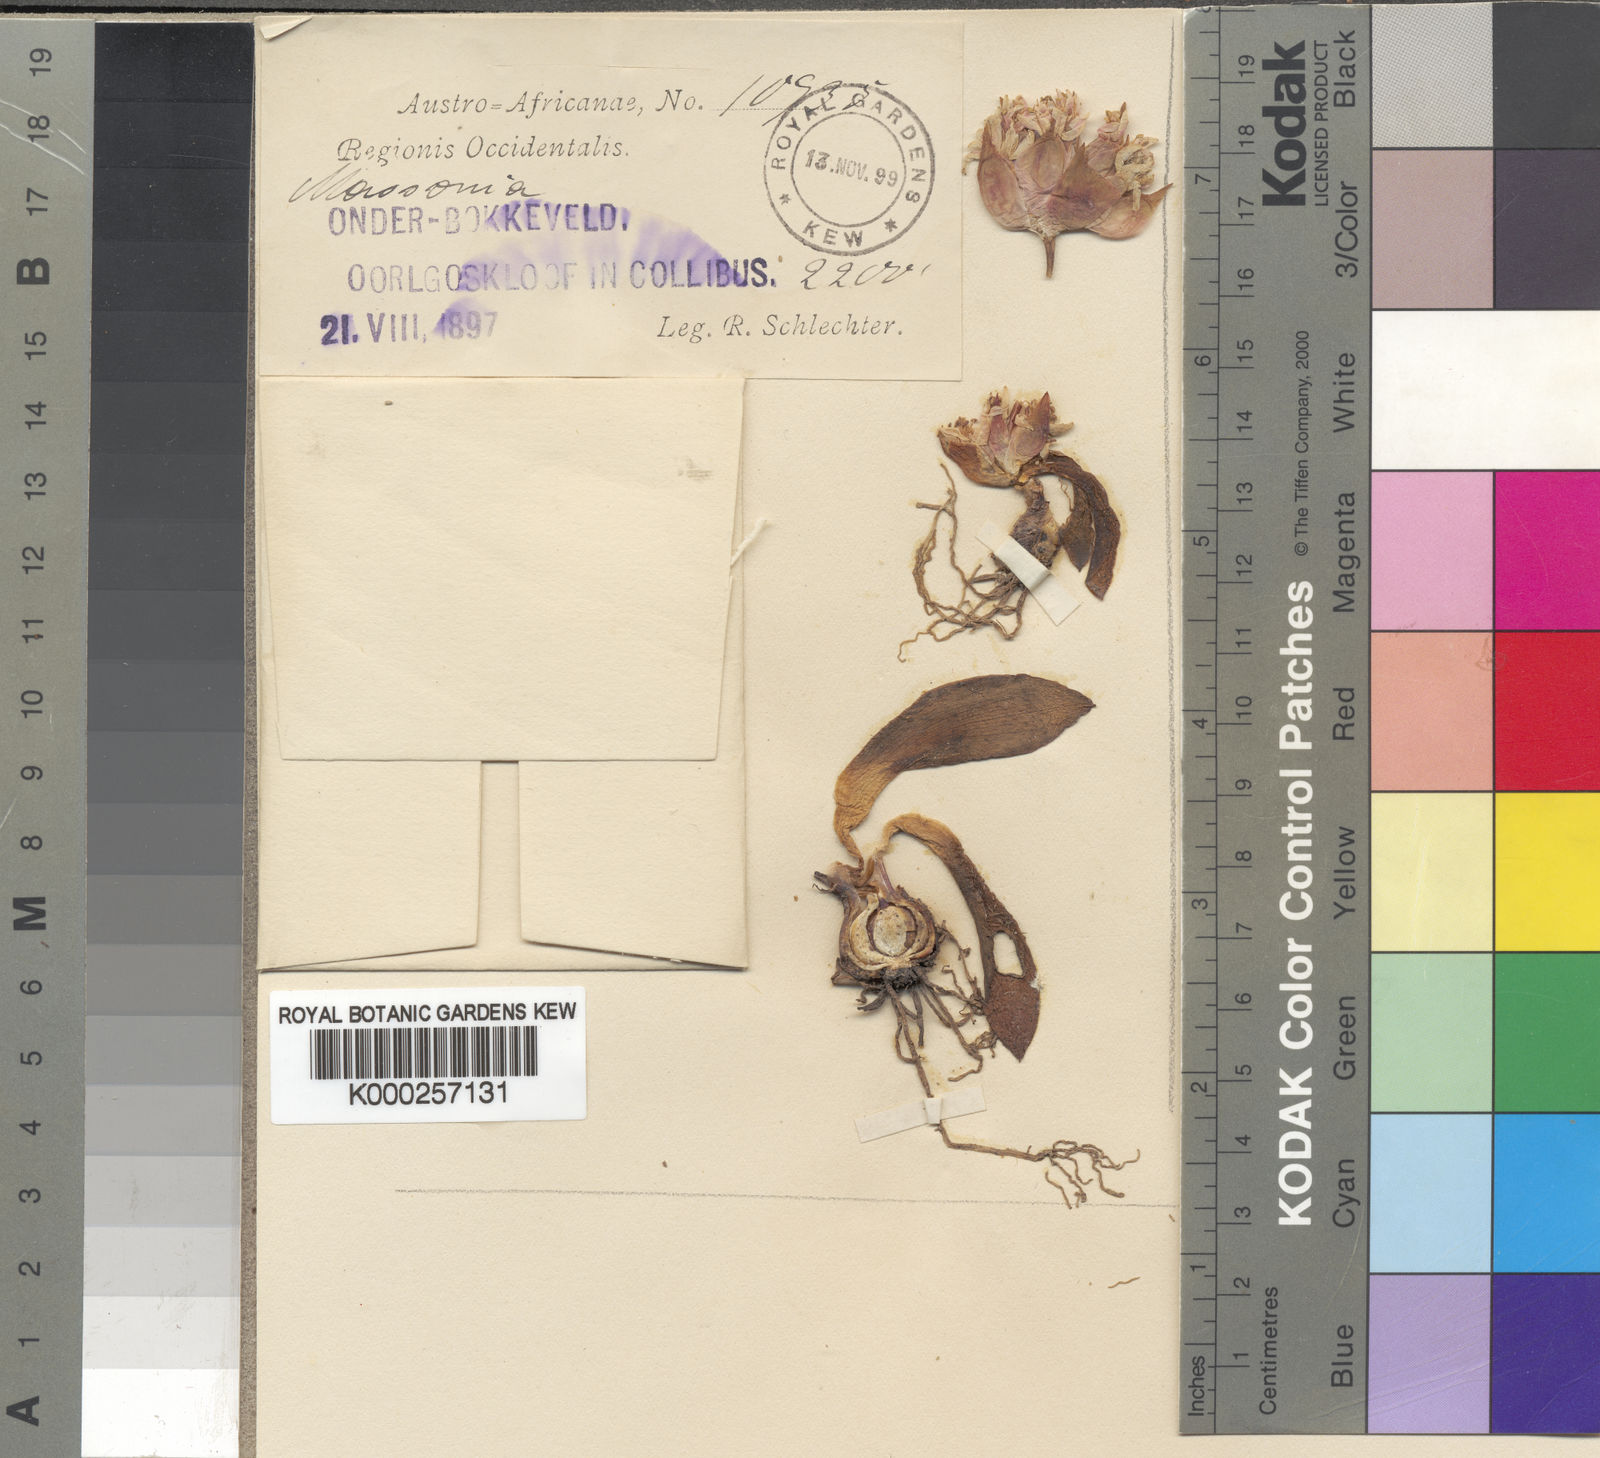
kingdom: Plantae
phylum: Tracheophyta
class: Liliopsida
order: Asparagales
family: Asparagaceae
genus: Massonia
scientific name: Massonia echinata
